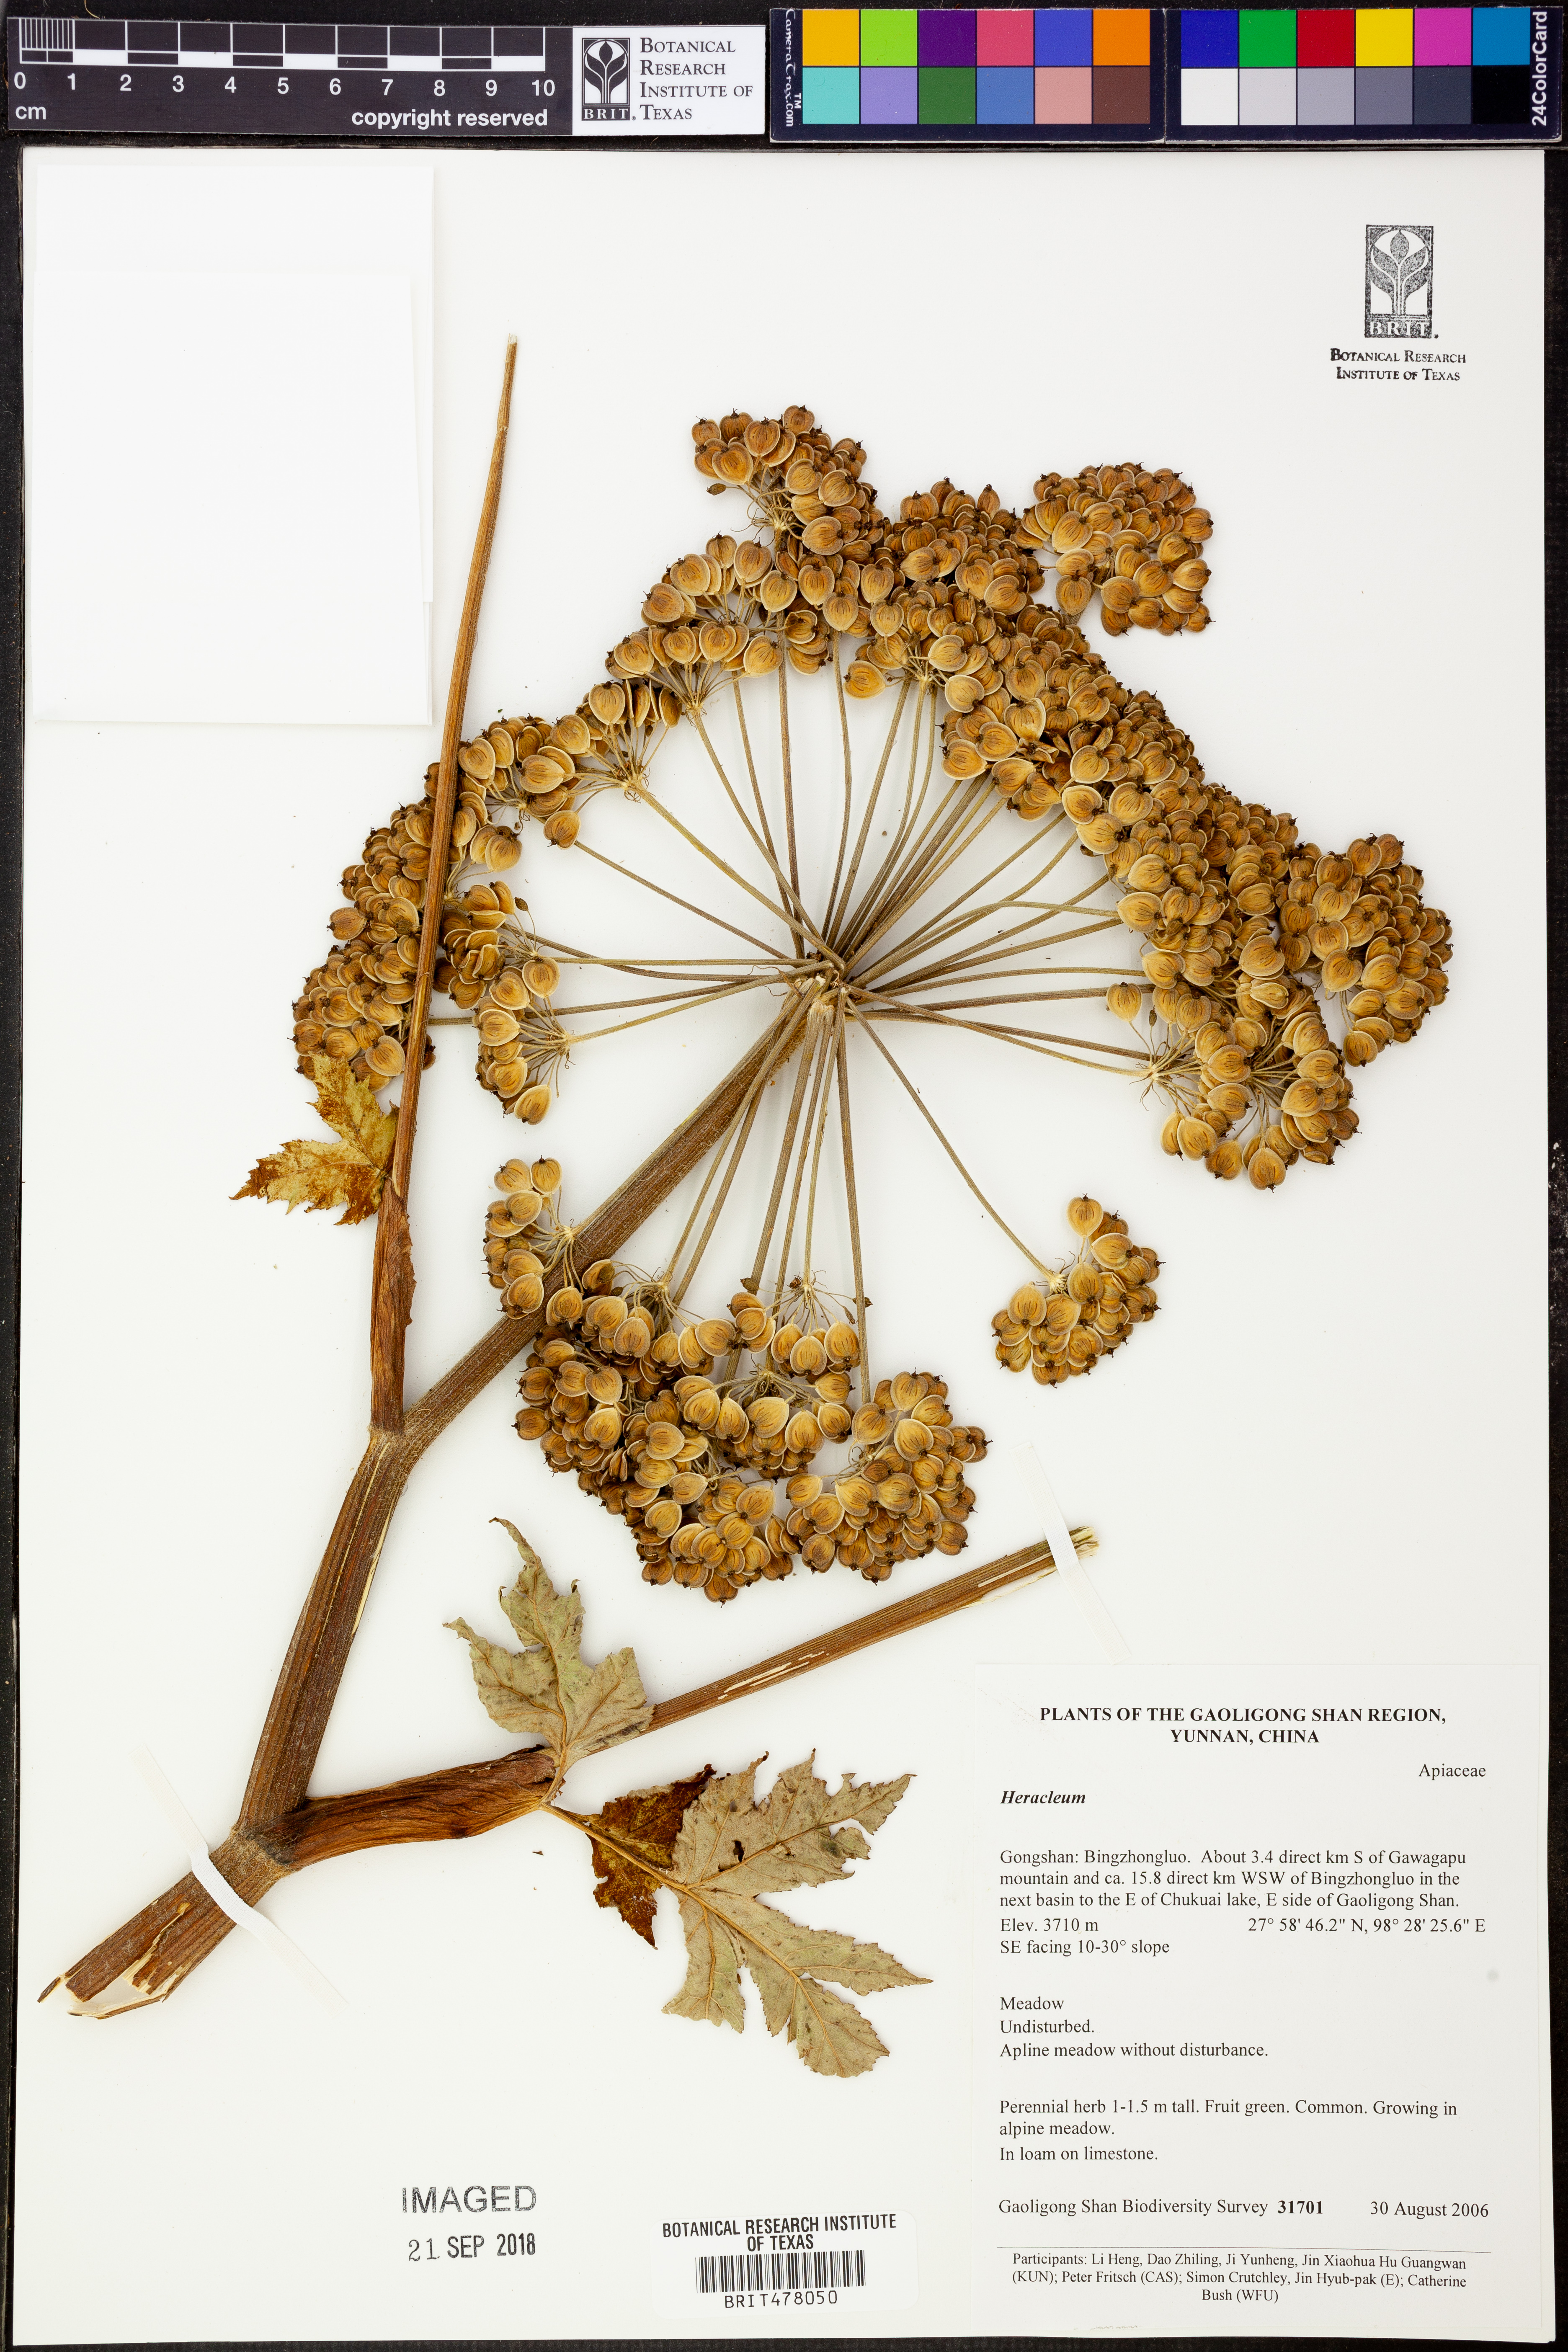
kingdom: Plantae
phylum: Tracheophyta
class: Magnoliopsida
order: Apiales
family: Apiaceae
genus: Heracleum
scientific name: Heracleum
